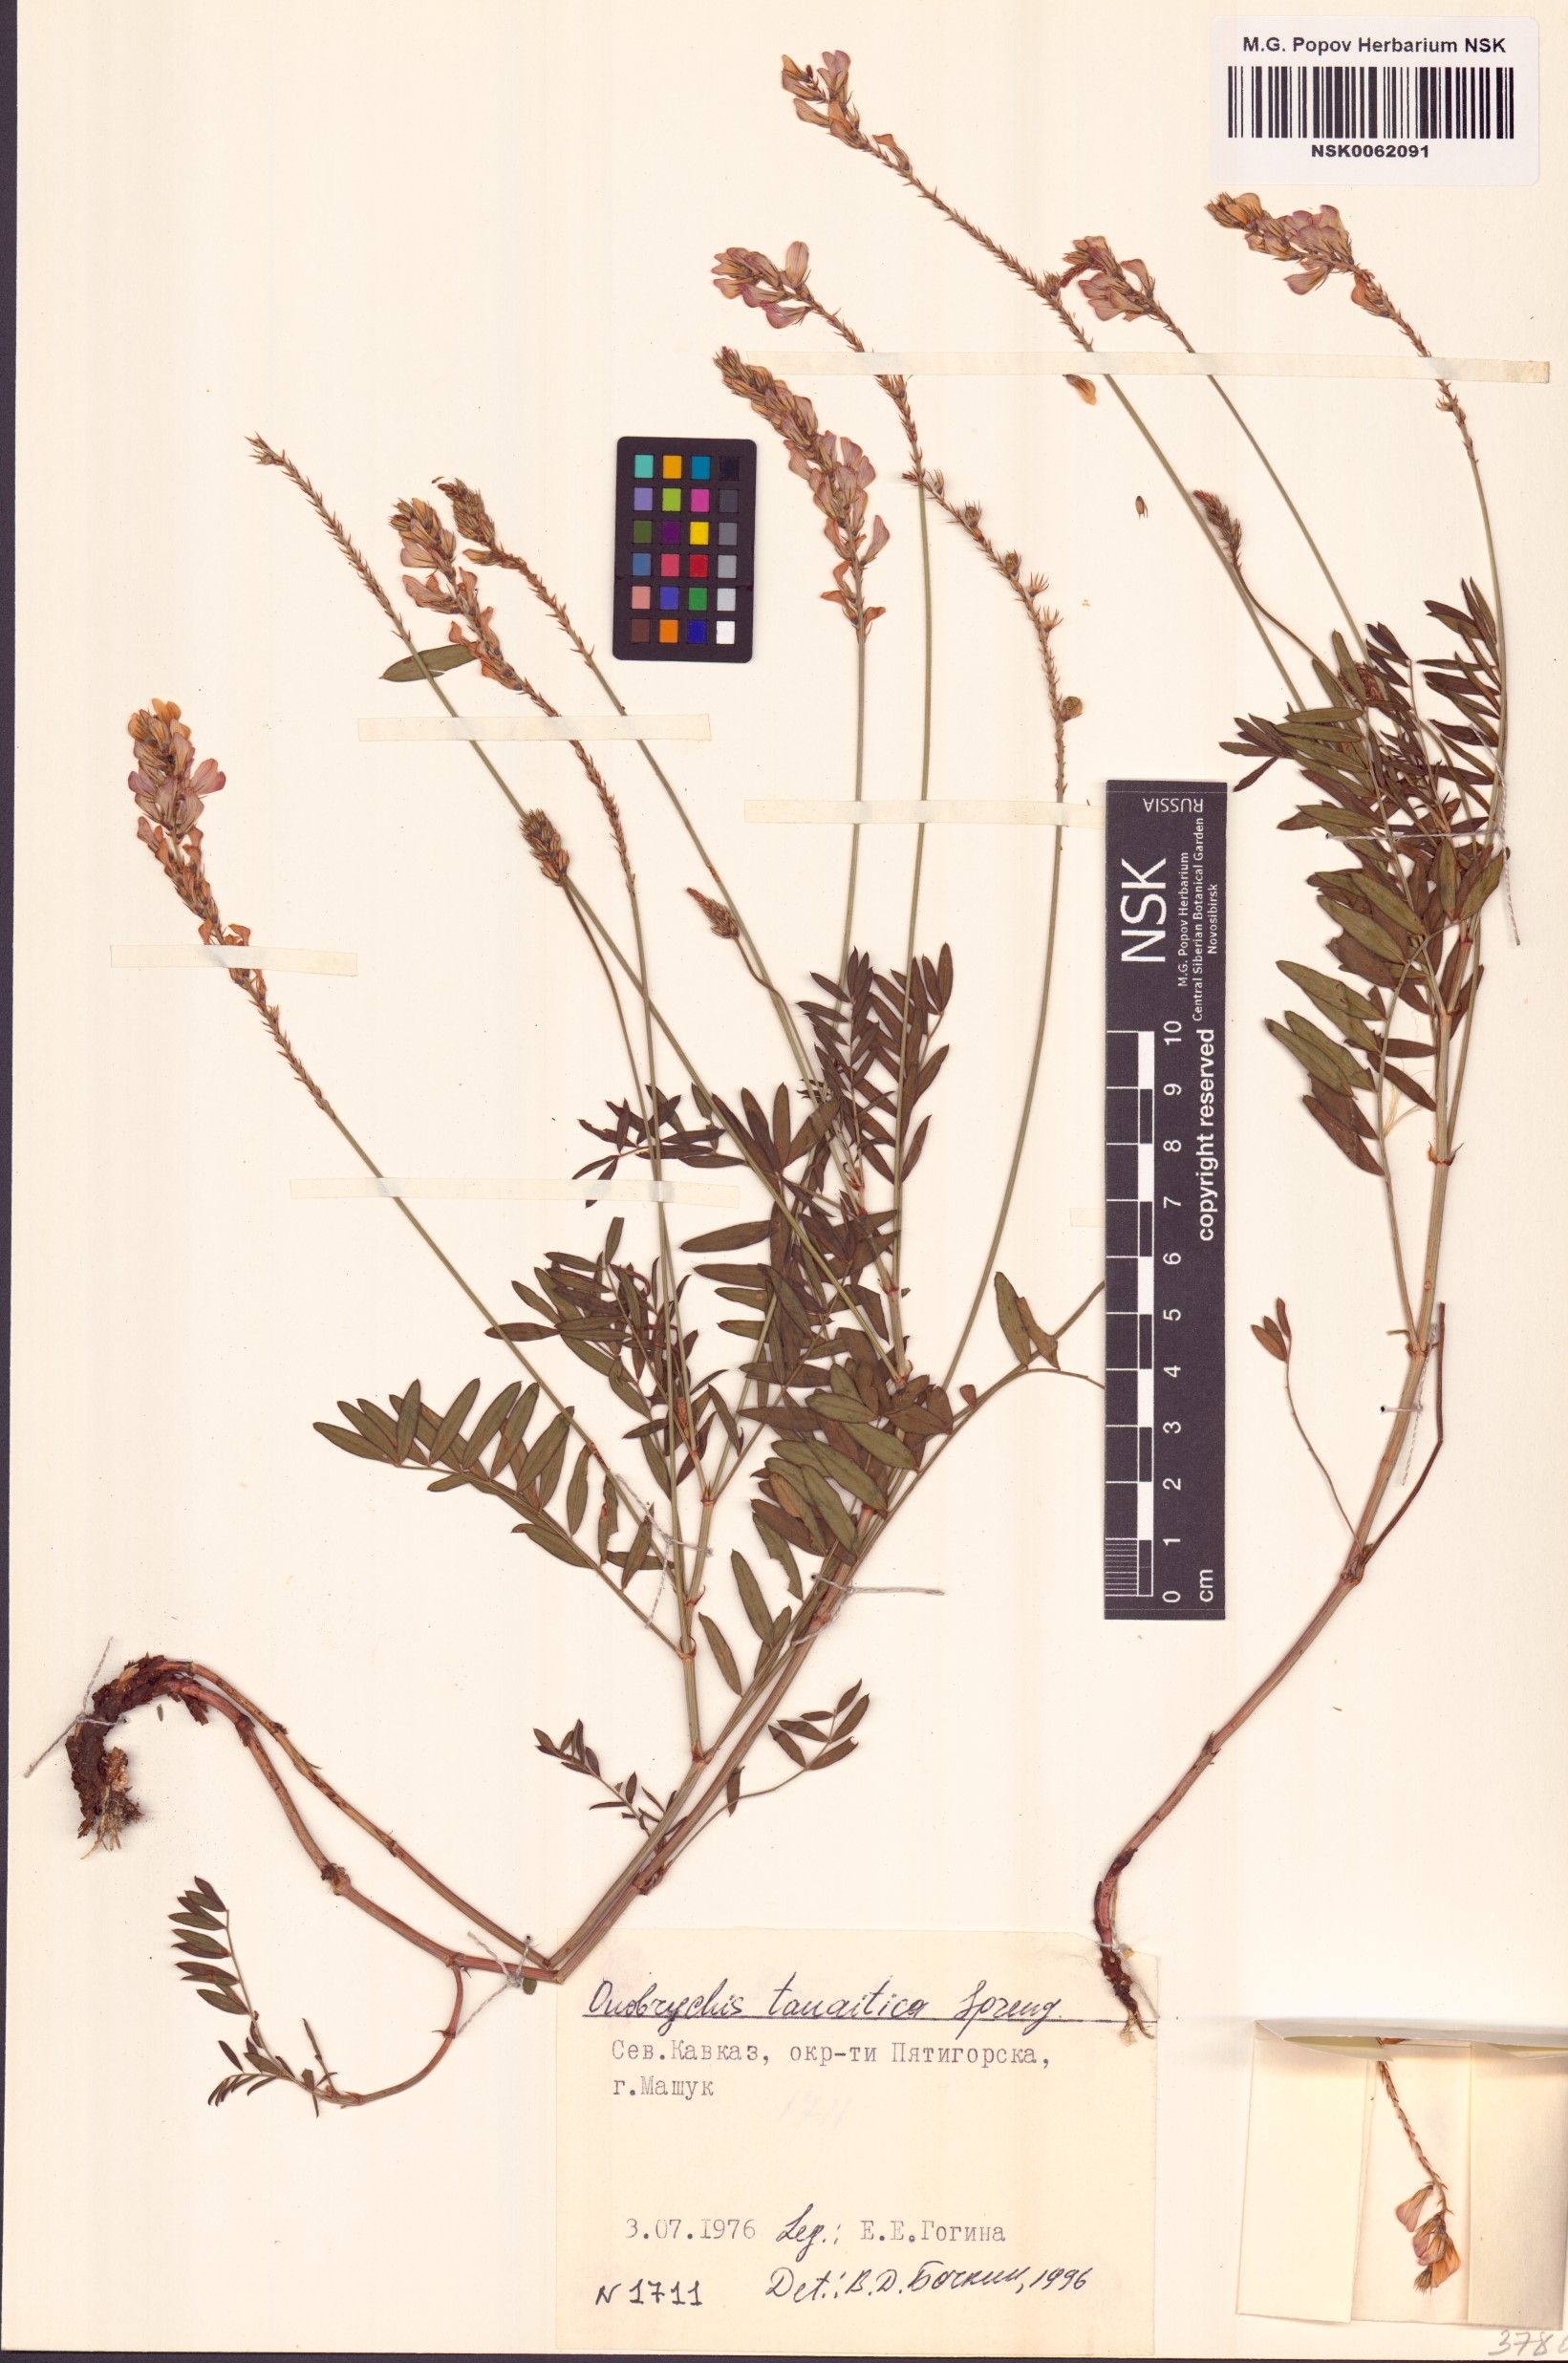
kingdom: Plantae
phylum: Tracheophyta
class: Magnoliopsida
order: Fabales
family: Fabaceae
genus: Onobrychis
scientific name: Onobrychis arenaria
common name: Sand esparcet
